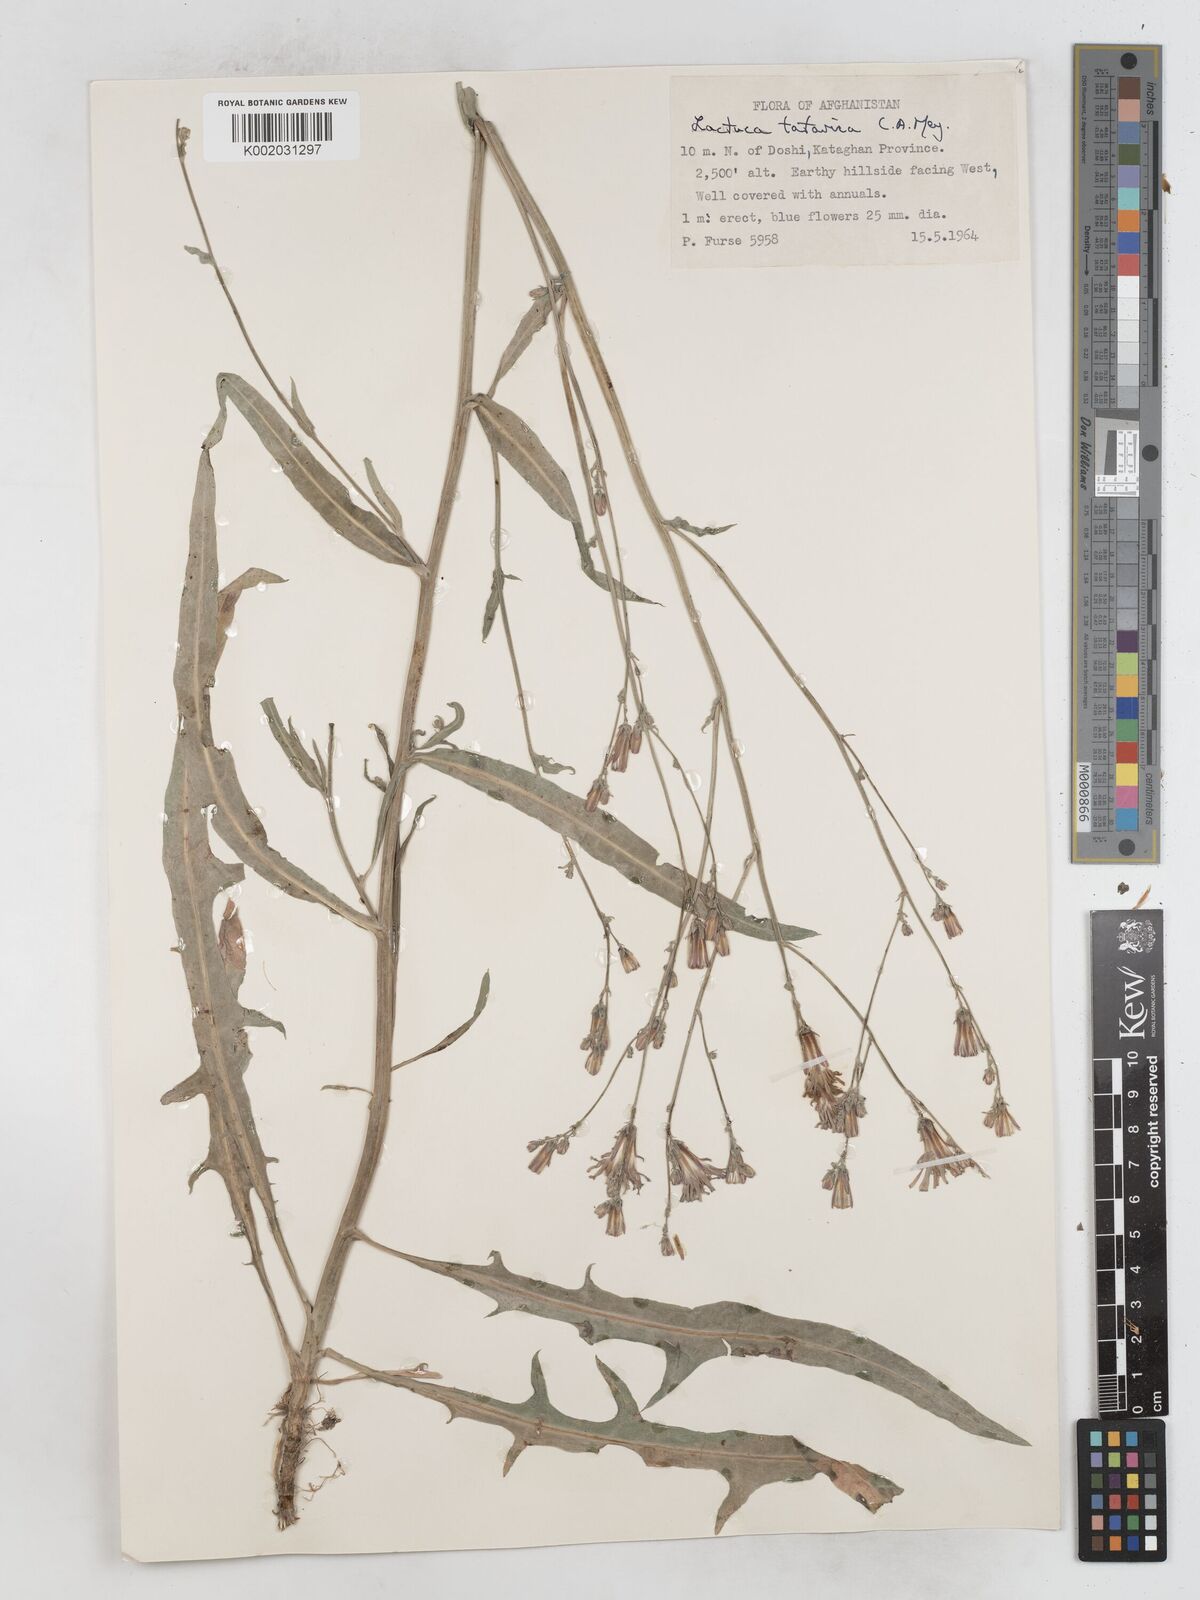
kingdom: Plantae
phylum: Tracheophyta
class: Magnoliopsida
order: Asterales
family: Asteraceae
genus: Lactuca
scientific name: Lactuca tatarica
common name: Blue lettuce
